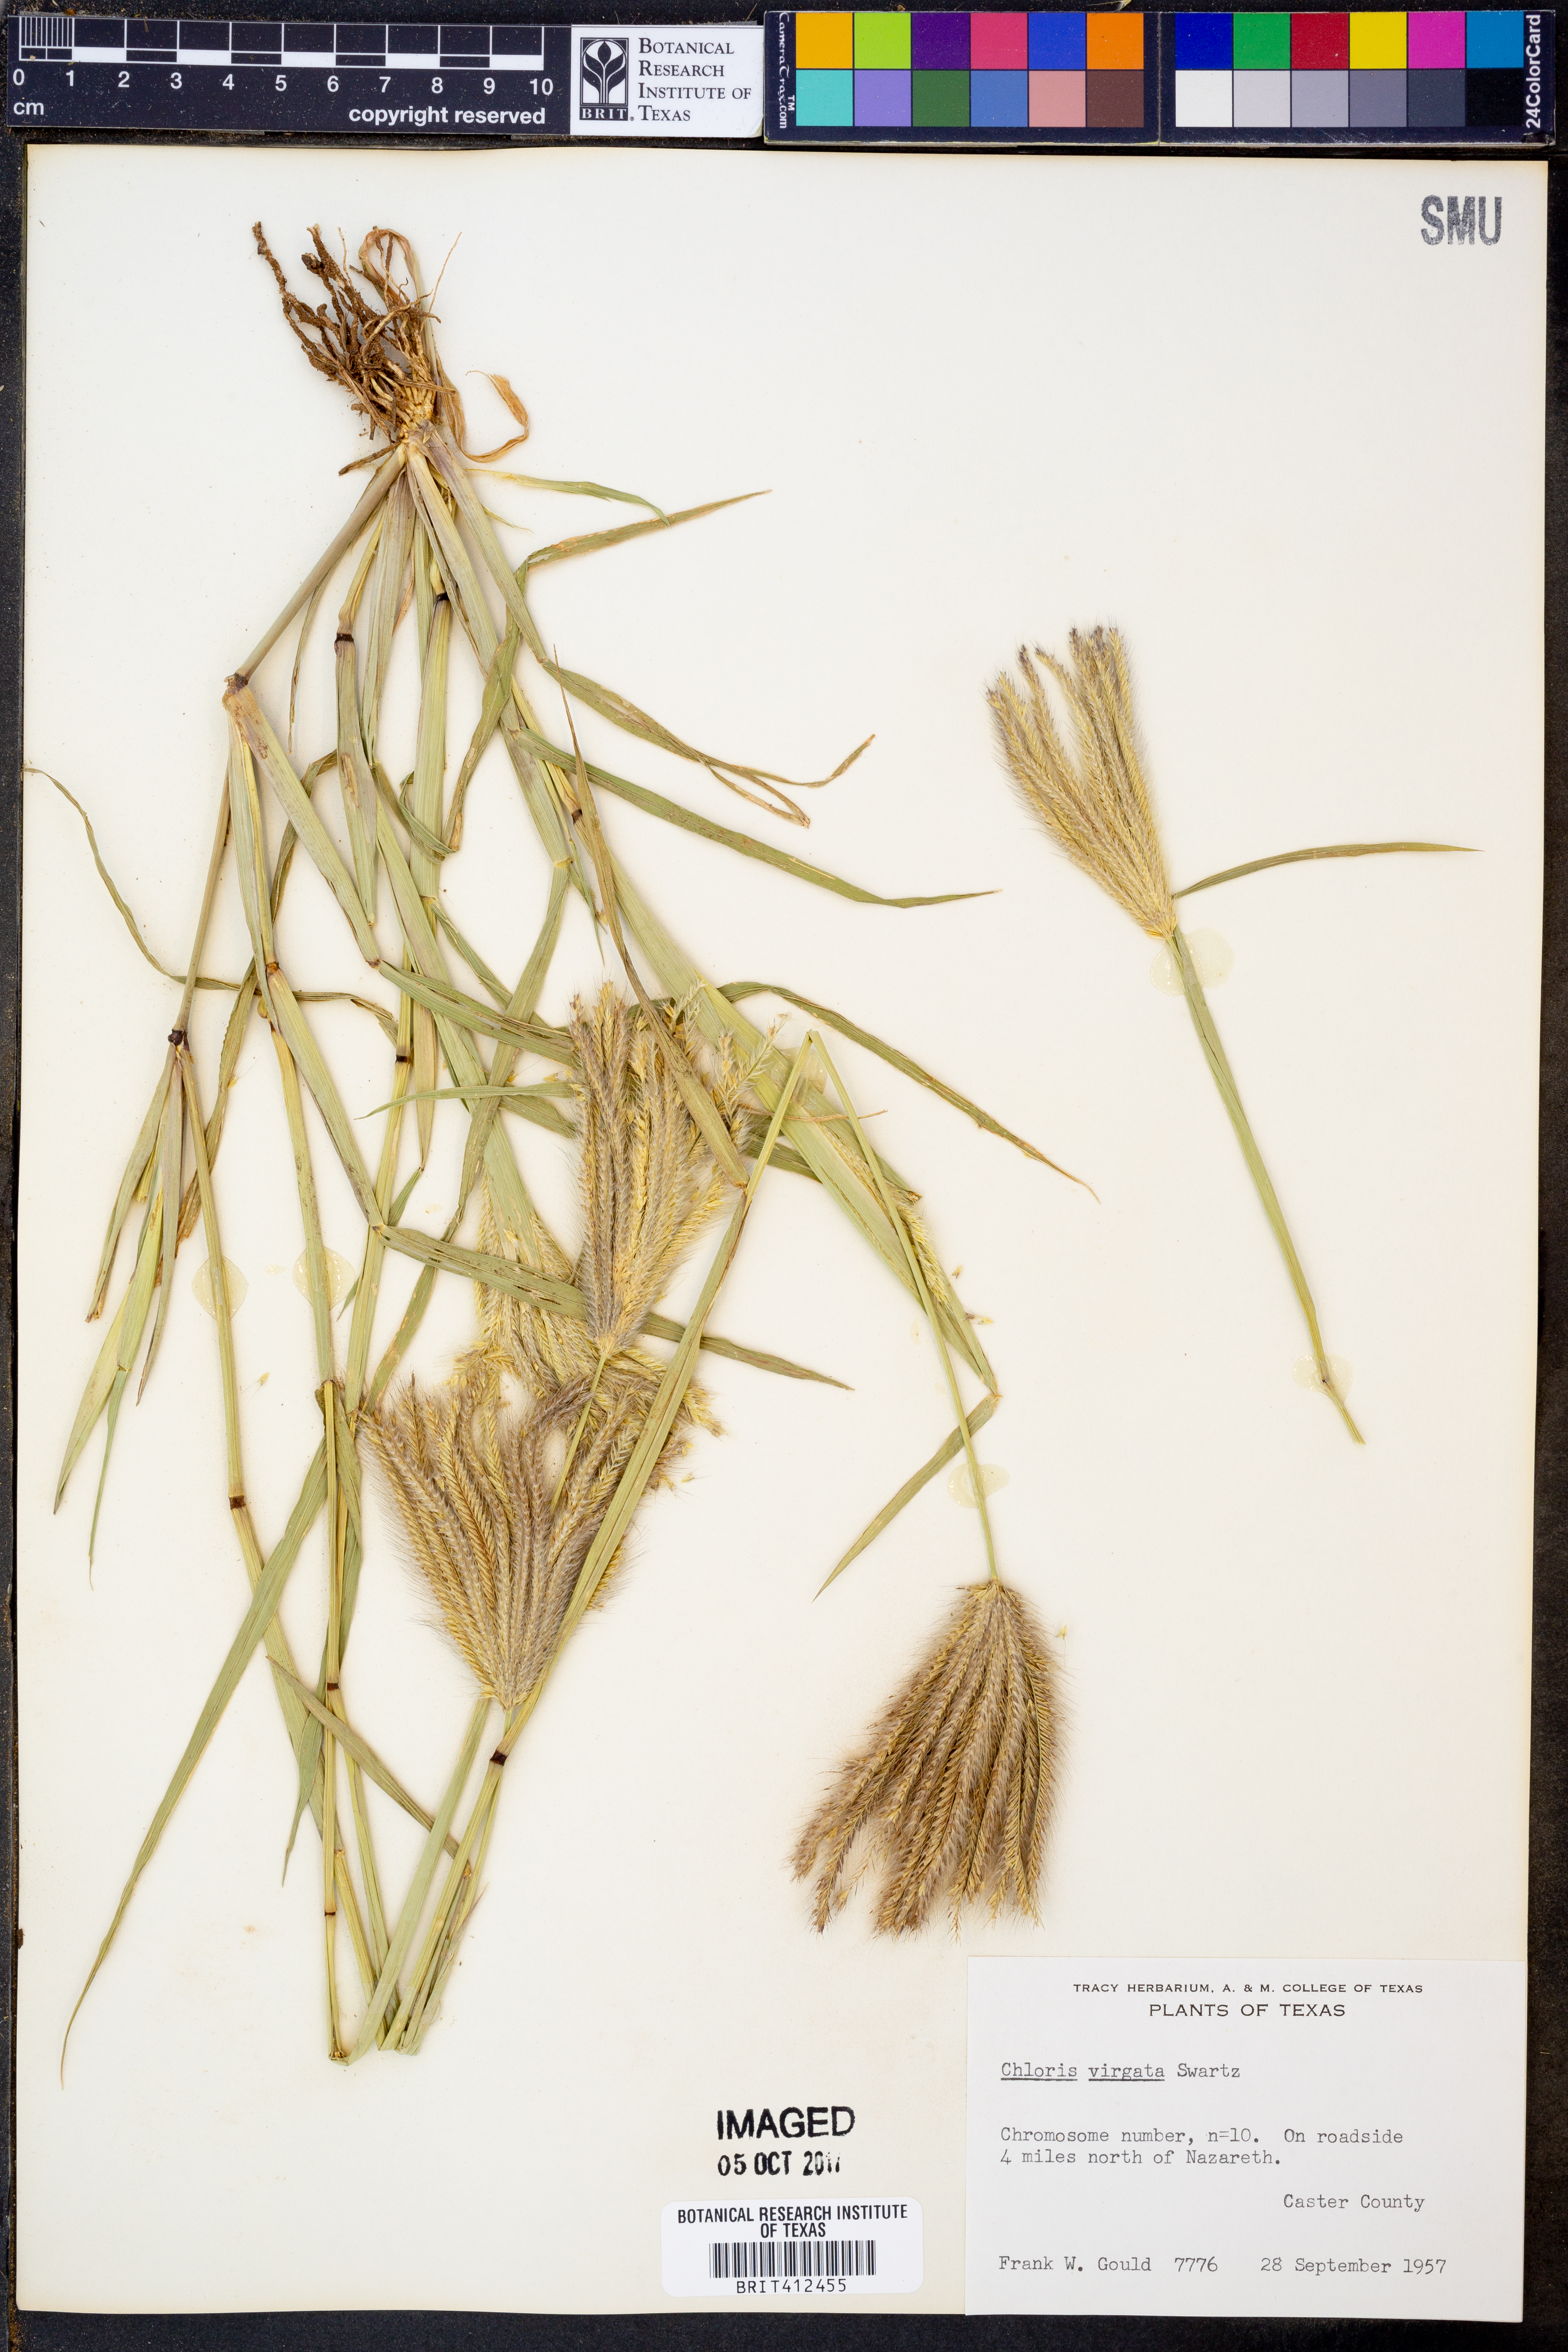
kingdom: Plantae
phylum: Tracheophyta
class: Liliopsida
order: Poales
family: Poaceae
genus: Chloris
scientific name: Chloris virgata
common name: Feathery rhodes-grass
